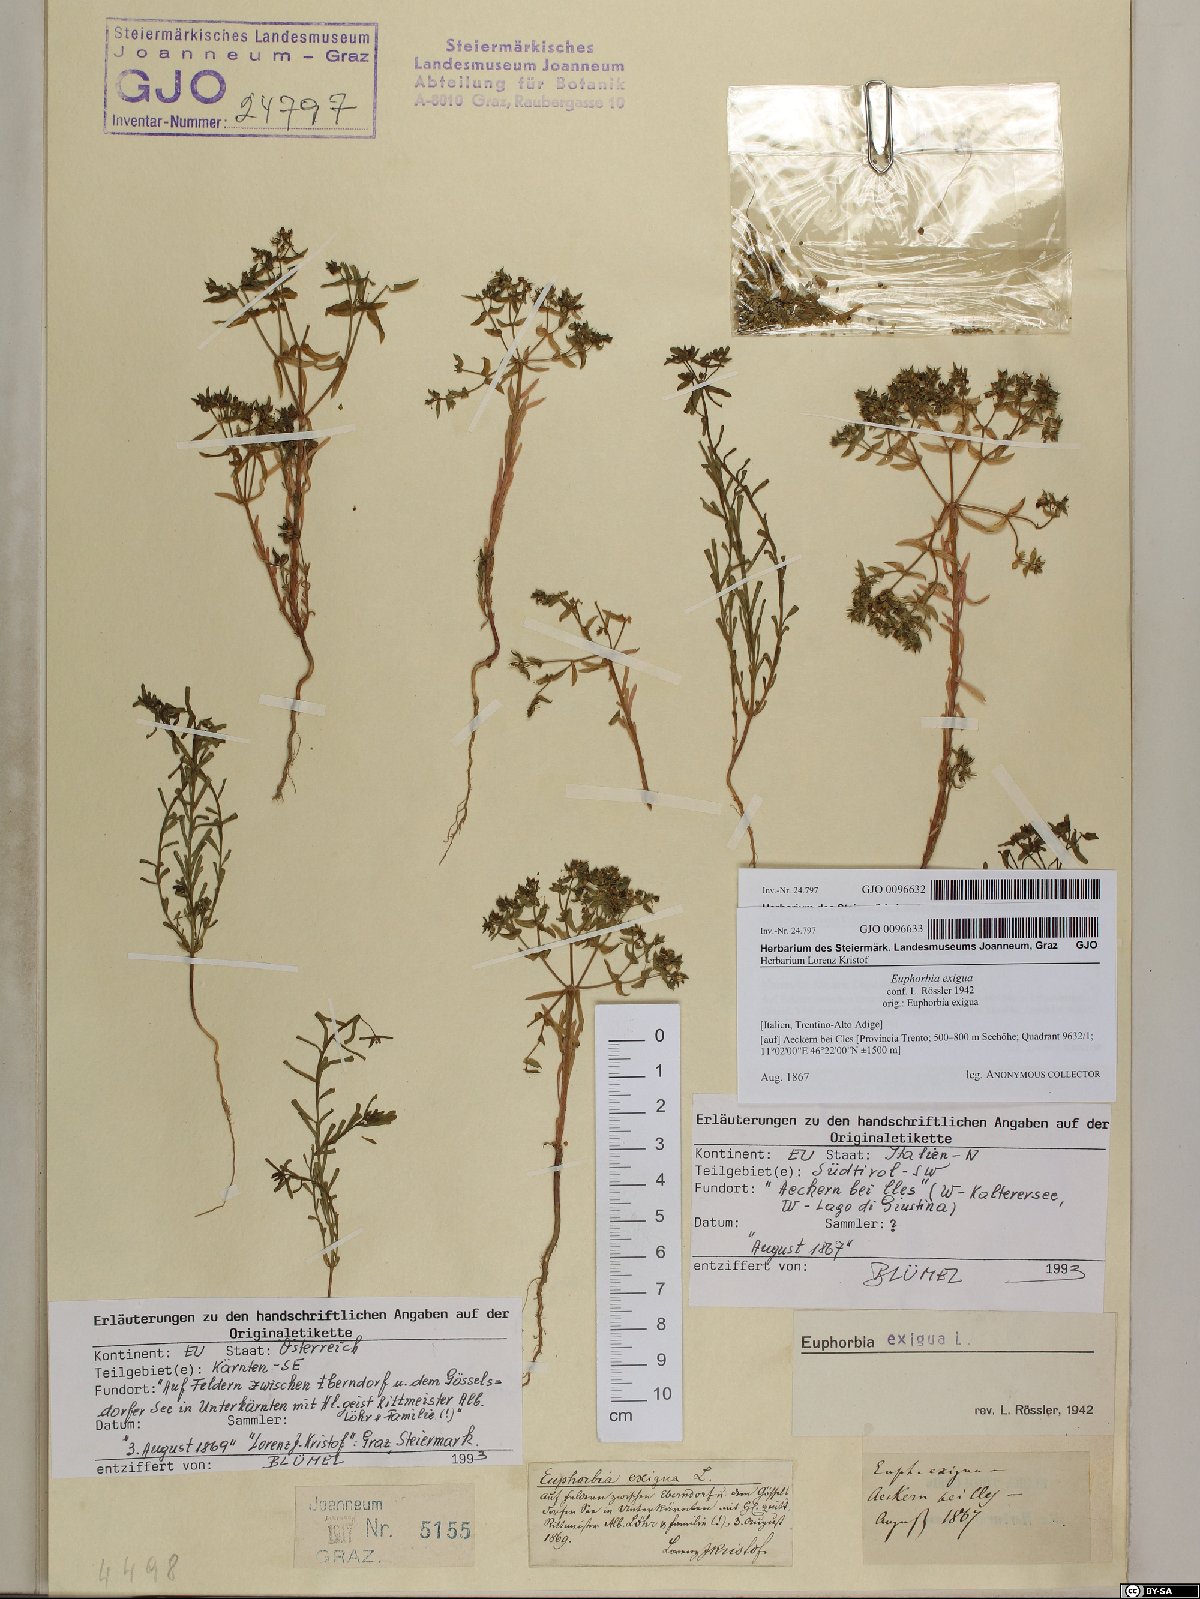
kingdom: Plantae
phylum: Tracheophyta
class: Magnoliopsida
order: Malpighiales
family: Euphorbiaceae
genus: Euphorbia
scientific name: Euphorbia exigua
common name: Dwarf spurge
